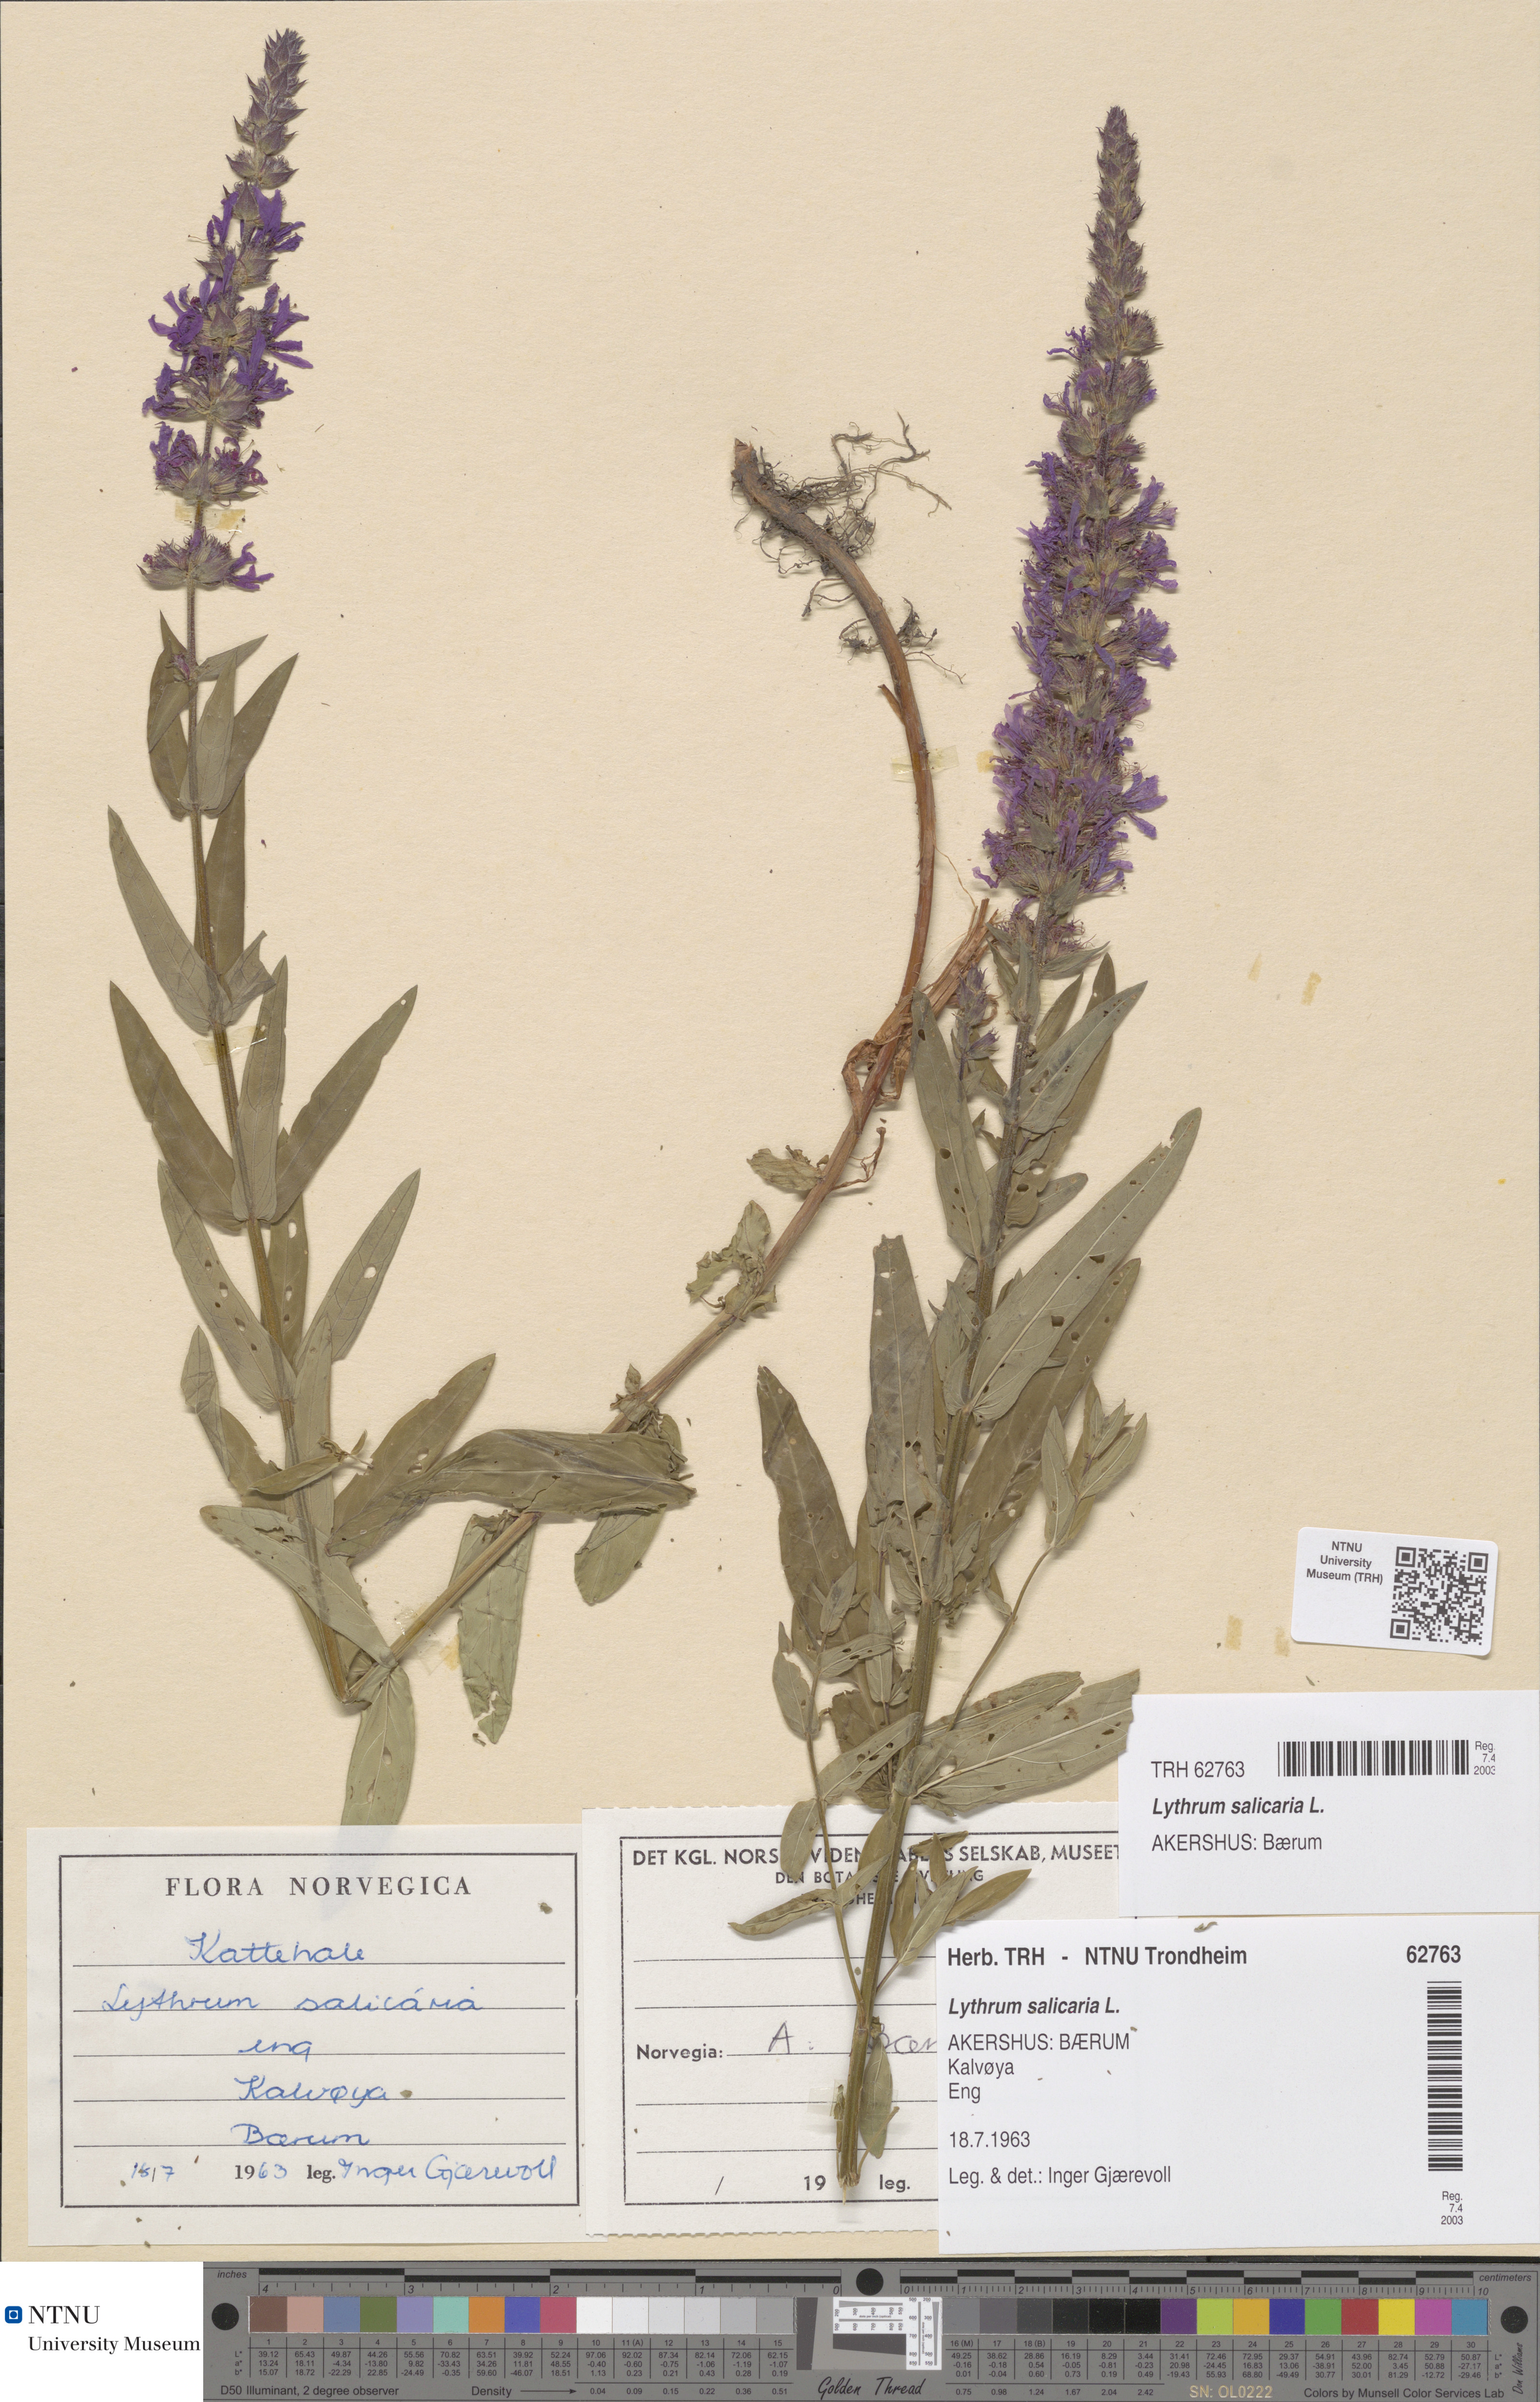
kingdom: Plantae
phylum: Tracheophyta
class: Magnoliopsida
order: Myrtales
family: Lythraceae
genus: Lythrum
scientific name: Lythrum salicaria
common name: Purple loosestrife
